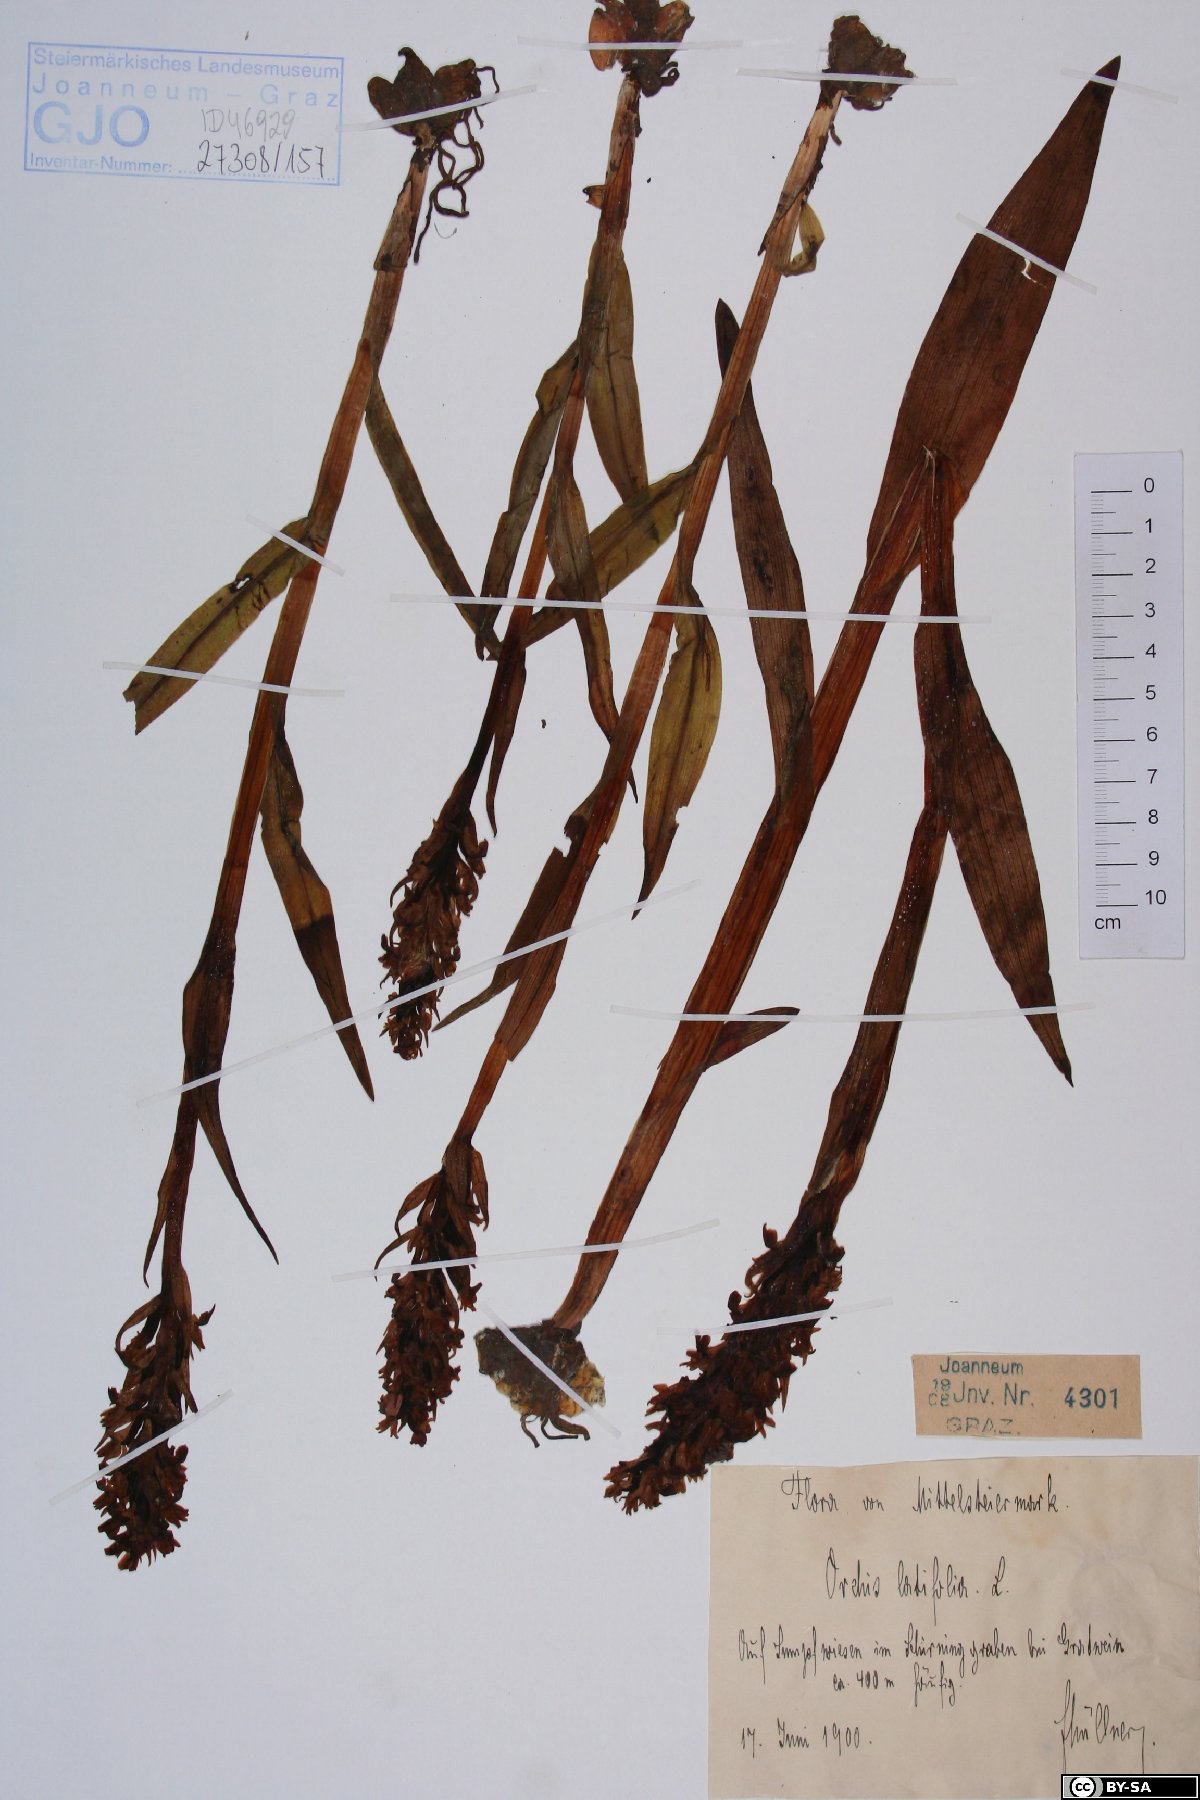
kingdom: Plantae
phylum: Tracheophyta
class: Liliopsida
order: Asparagales
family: Orchidaceae
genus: Dactylorhiza
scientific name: Dactylorhiza incarnata
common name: Early marsh-orchid
